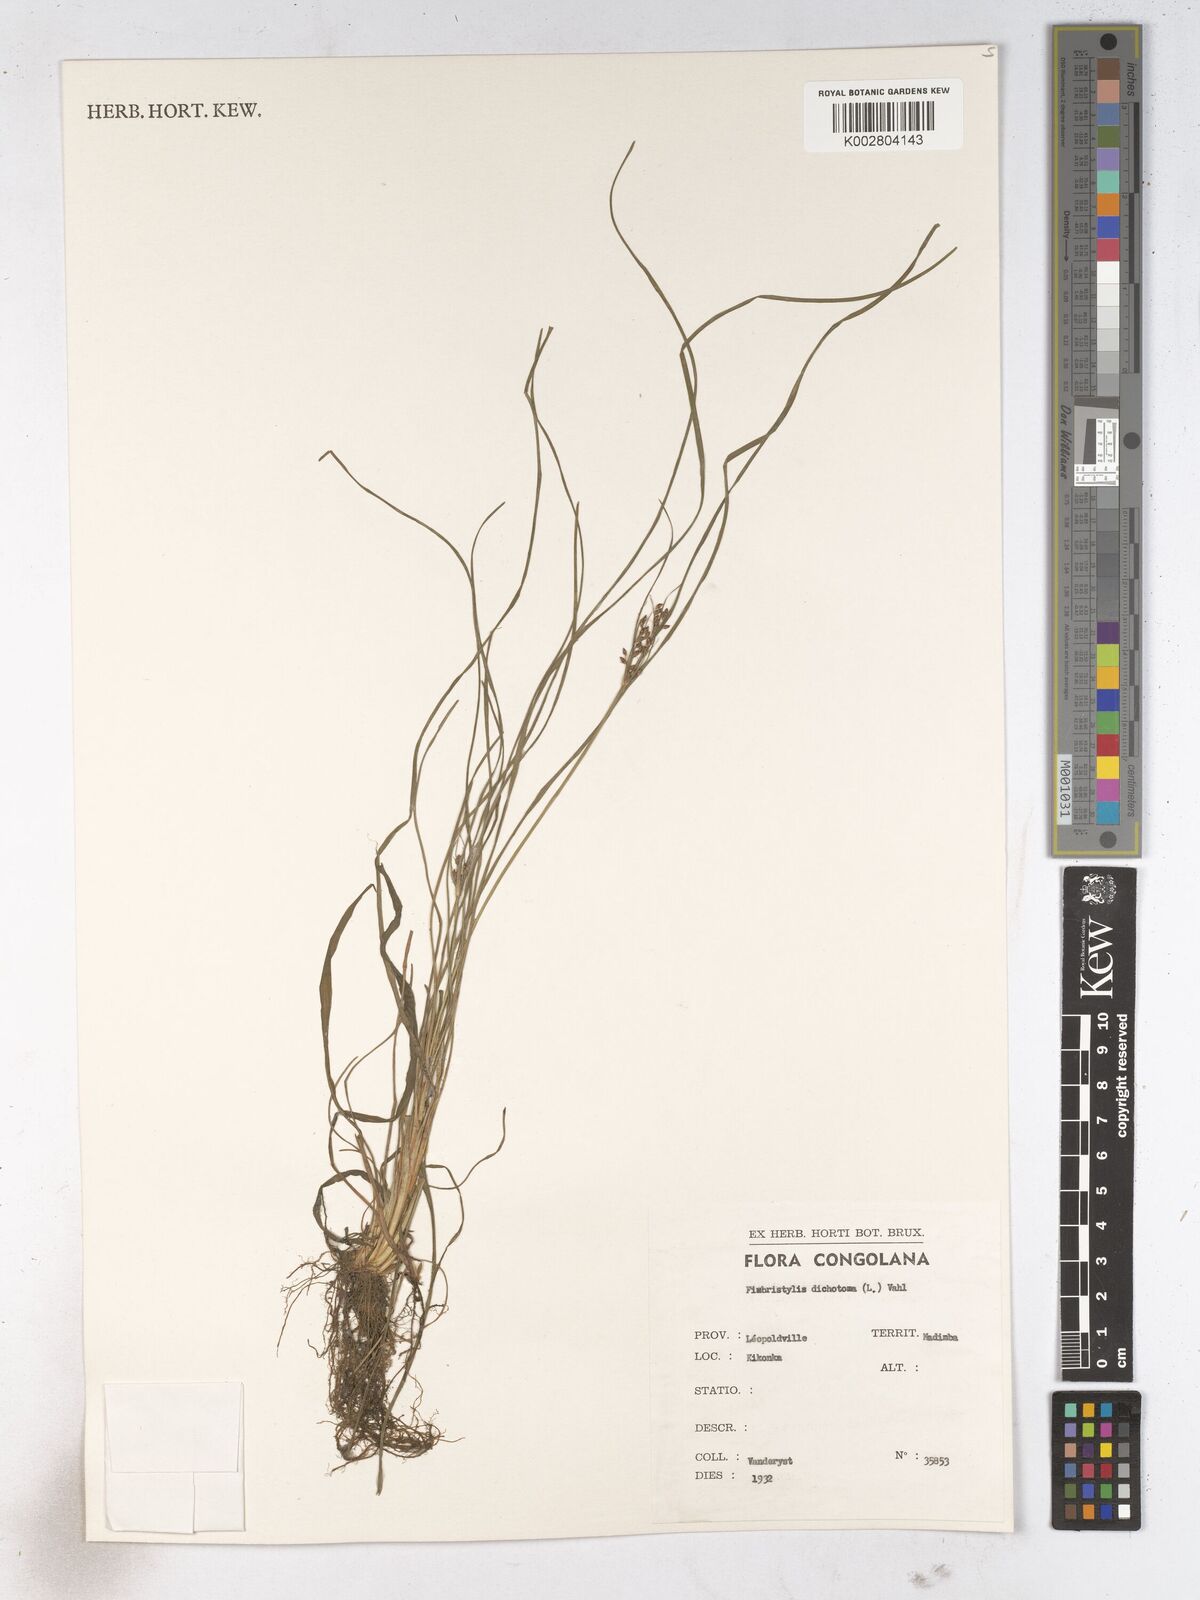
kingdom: Plantae
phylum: Tracheophyta
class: Liliopsida
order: Poales
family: Cyperaceae
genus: Fimbristylis
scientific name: Fimbristylis dichotoma
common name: Forked fimbry
